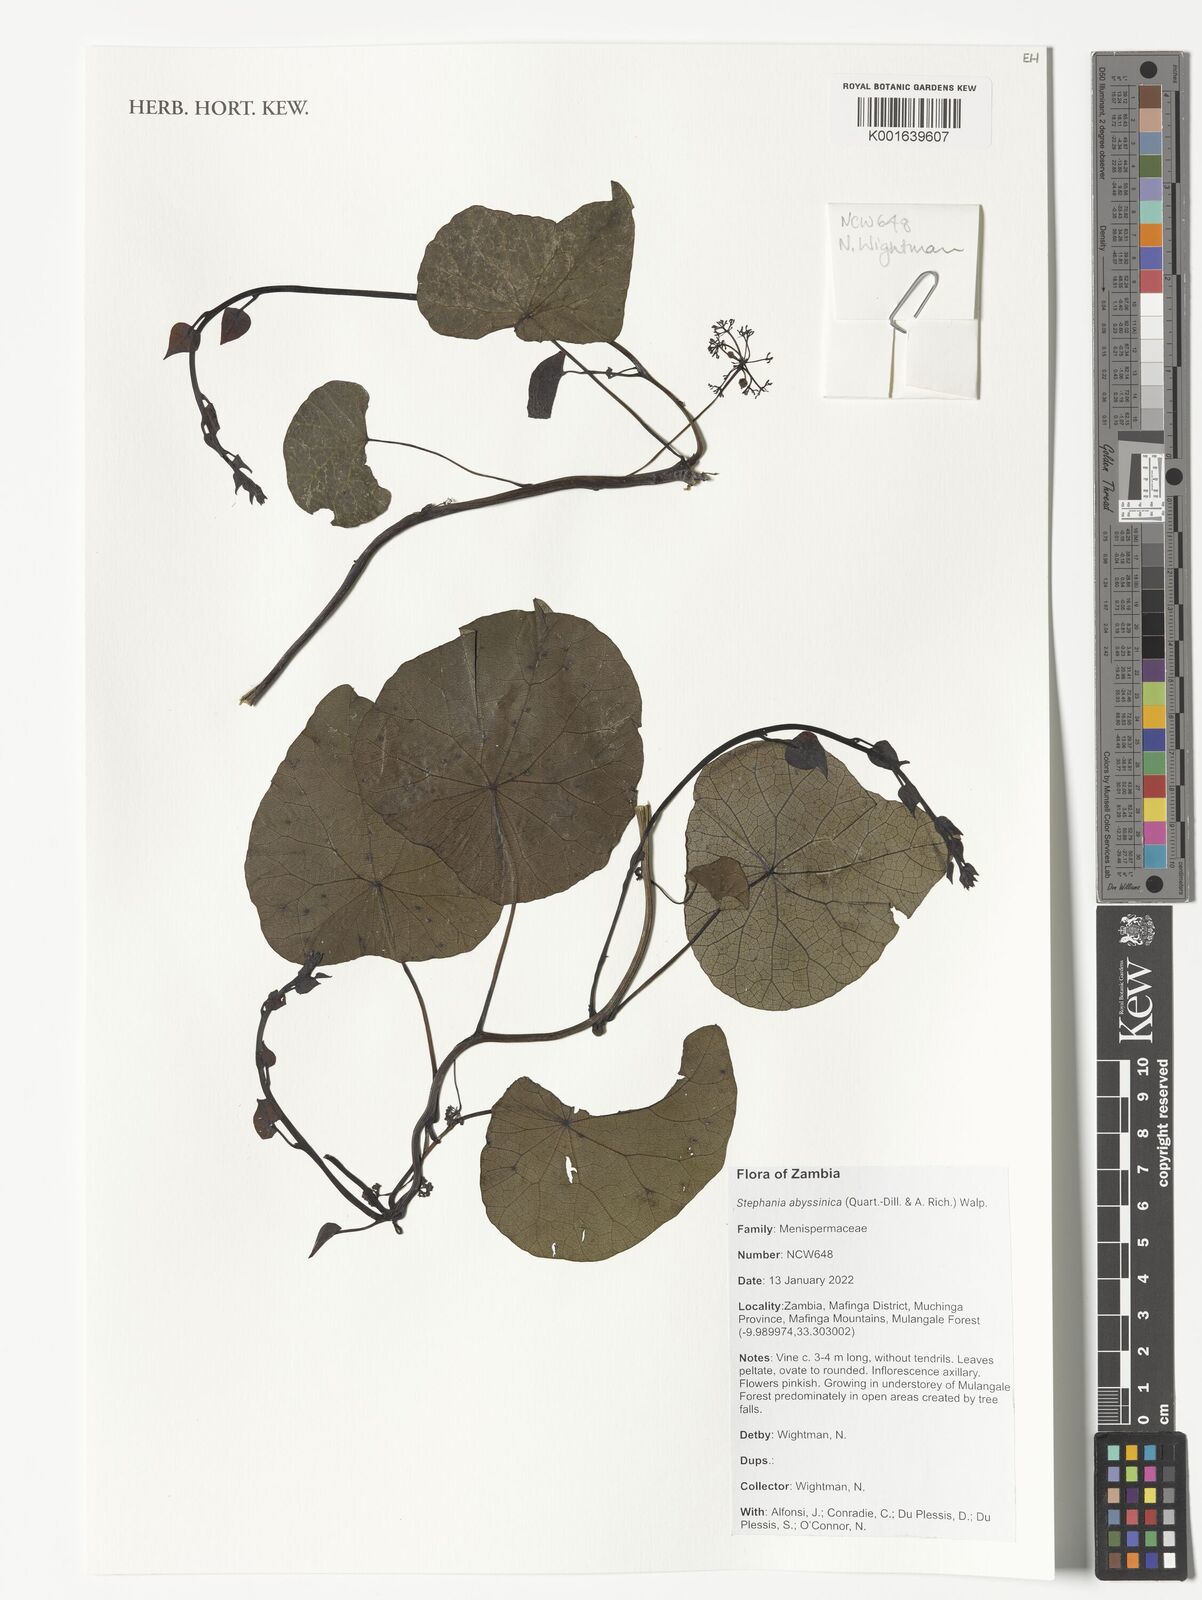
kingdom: Plantae
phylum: Tracheophyta
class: Magnoliopsida
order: Ranunculales
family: Menispermaceae
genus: Stephania
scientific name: Stephania abyssinica
